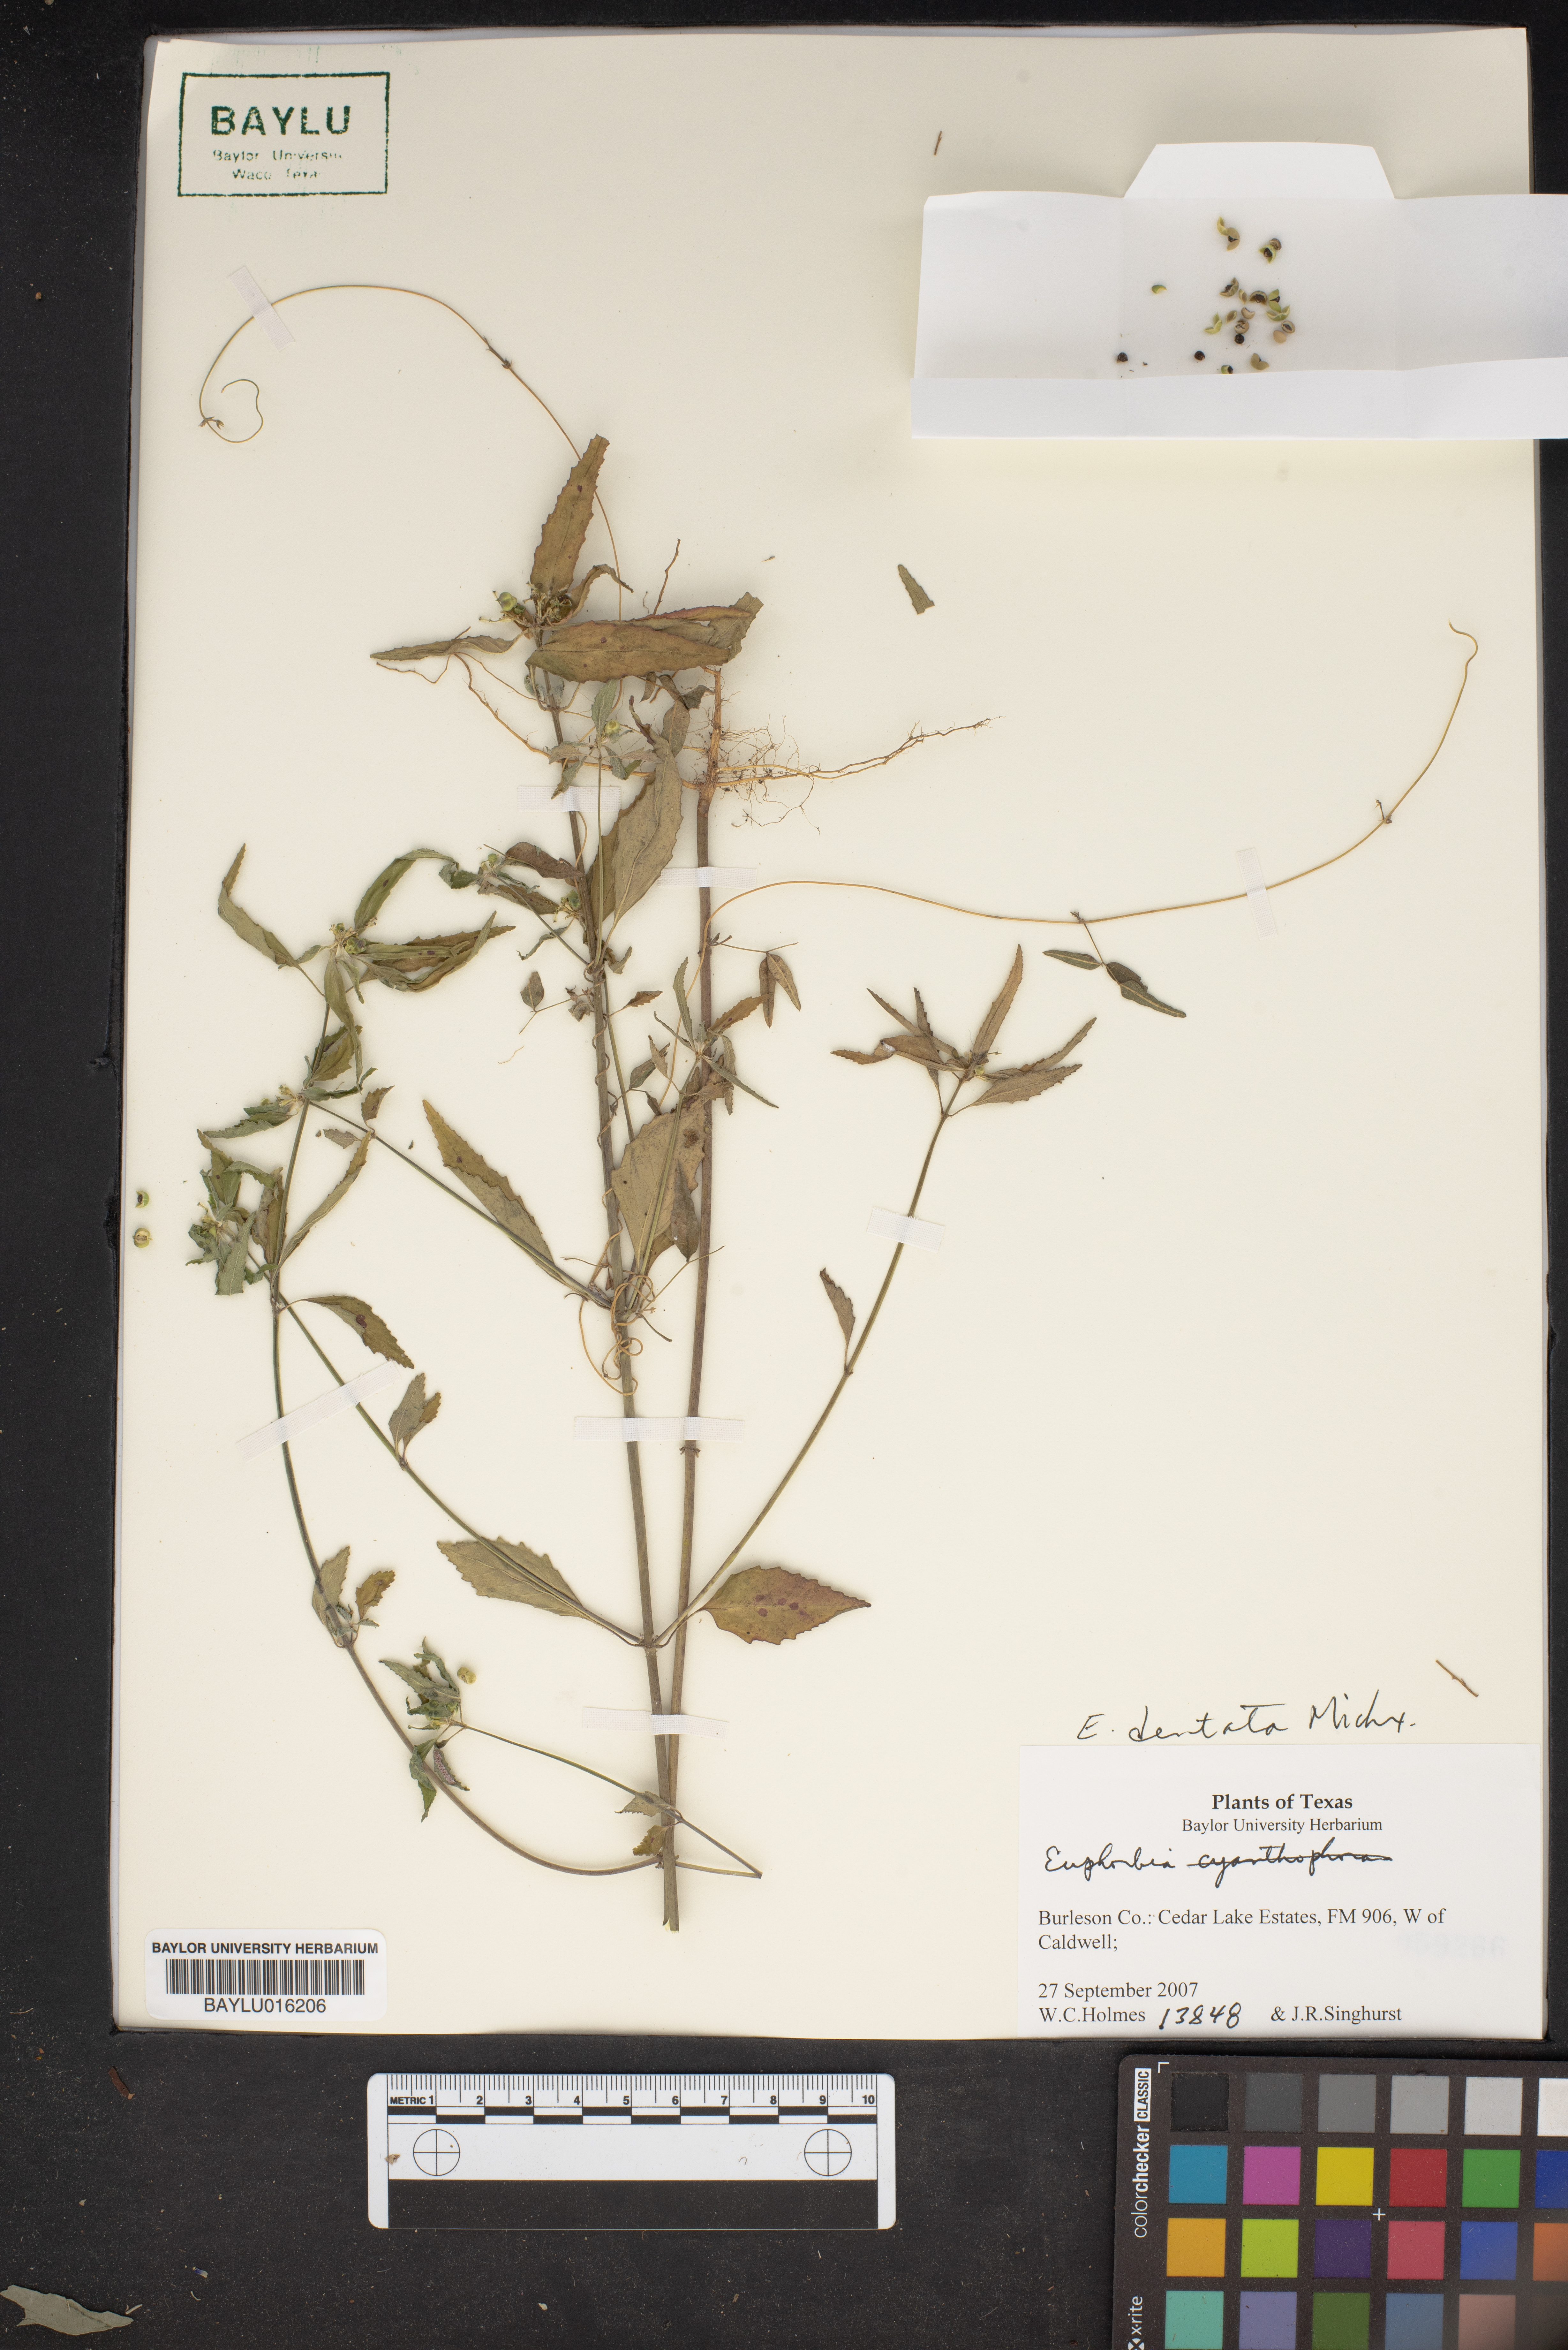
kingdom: Plantae
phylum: Tracheophyta
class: Magnoliopsida
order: Malpighiales
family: Euphorbiaceae
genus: Euphorbia
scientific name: Euphorbia dentata
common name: Dentate spurge
